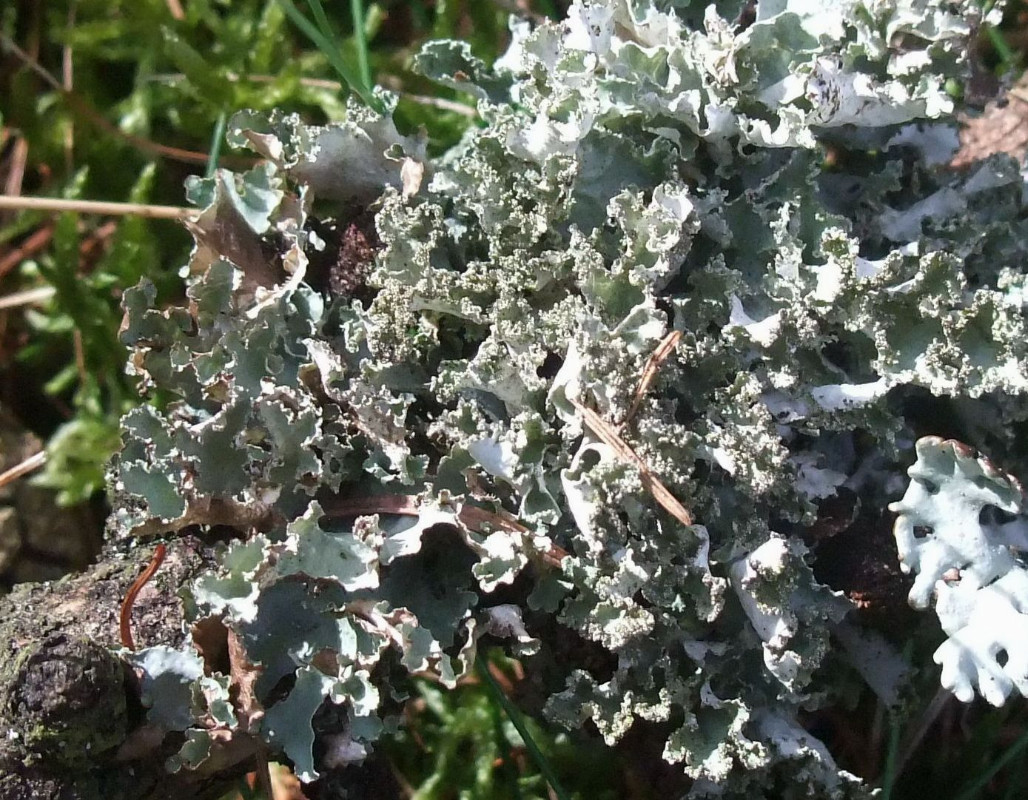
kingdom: Fungi
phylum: Ascomycota
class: Lecanoromycetes
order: Lecanorales
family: Parmeliaceae
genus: Platismatia
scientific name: Platismatia glauca
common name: blågrå papirlav
